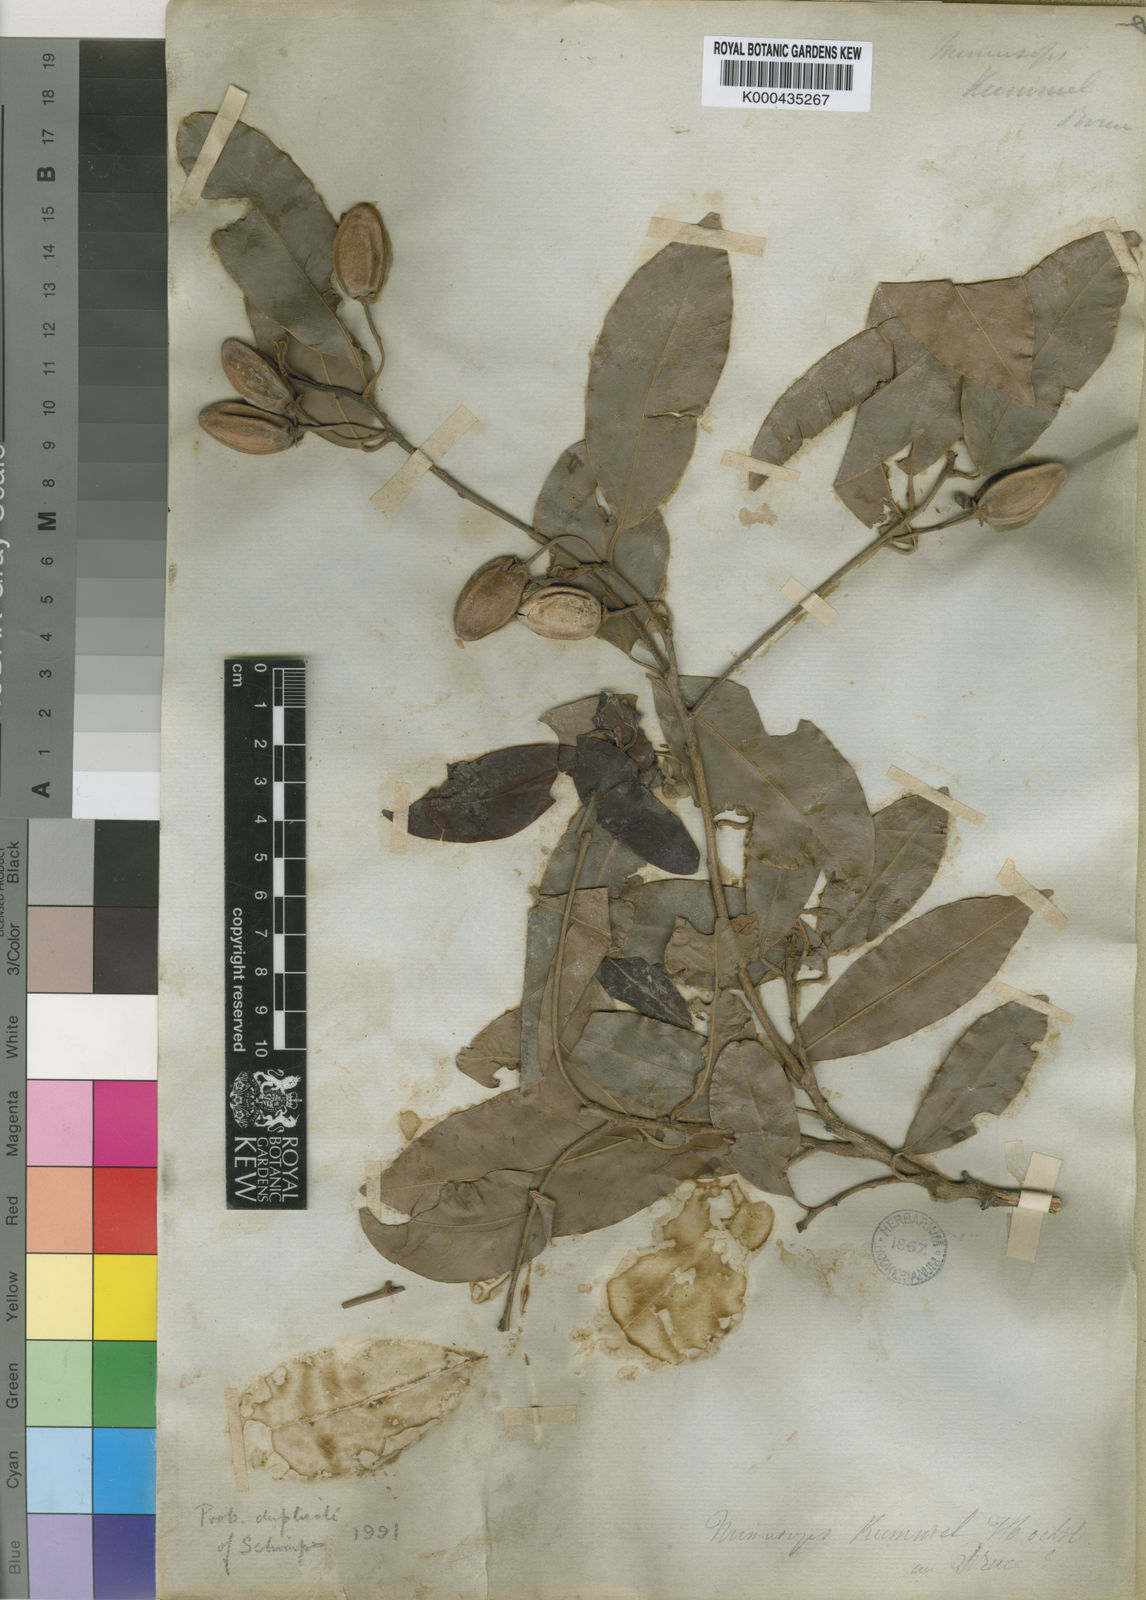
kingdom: Plantae
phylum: Tracheophyta
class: Magnoliopsida
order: Ericales
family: Sapotaceae
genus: Mimusops
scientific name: Mimusops kummel
